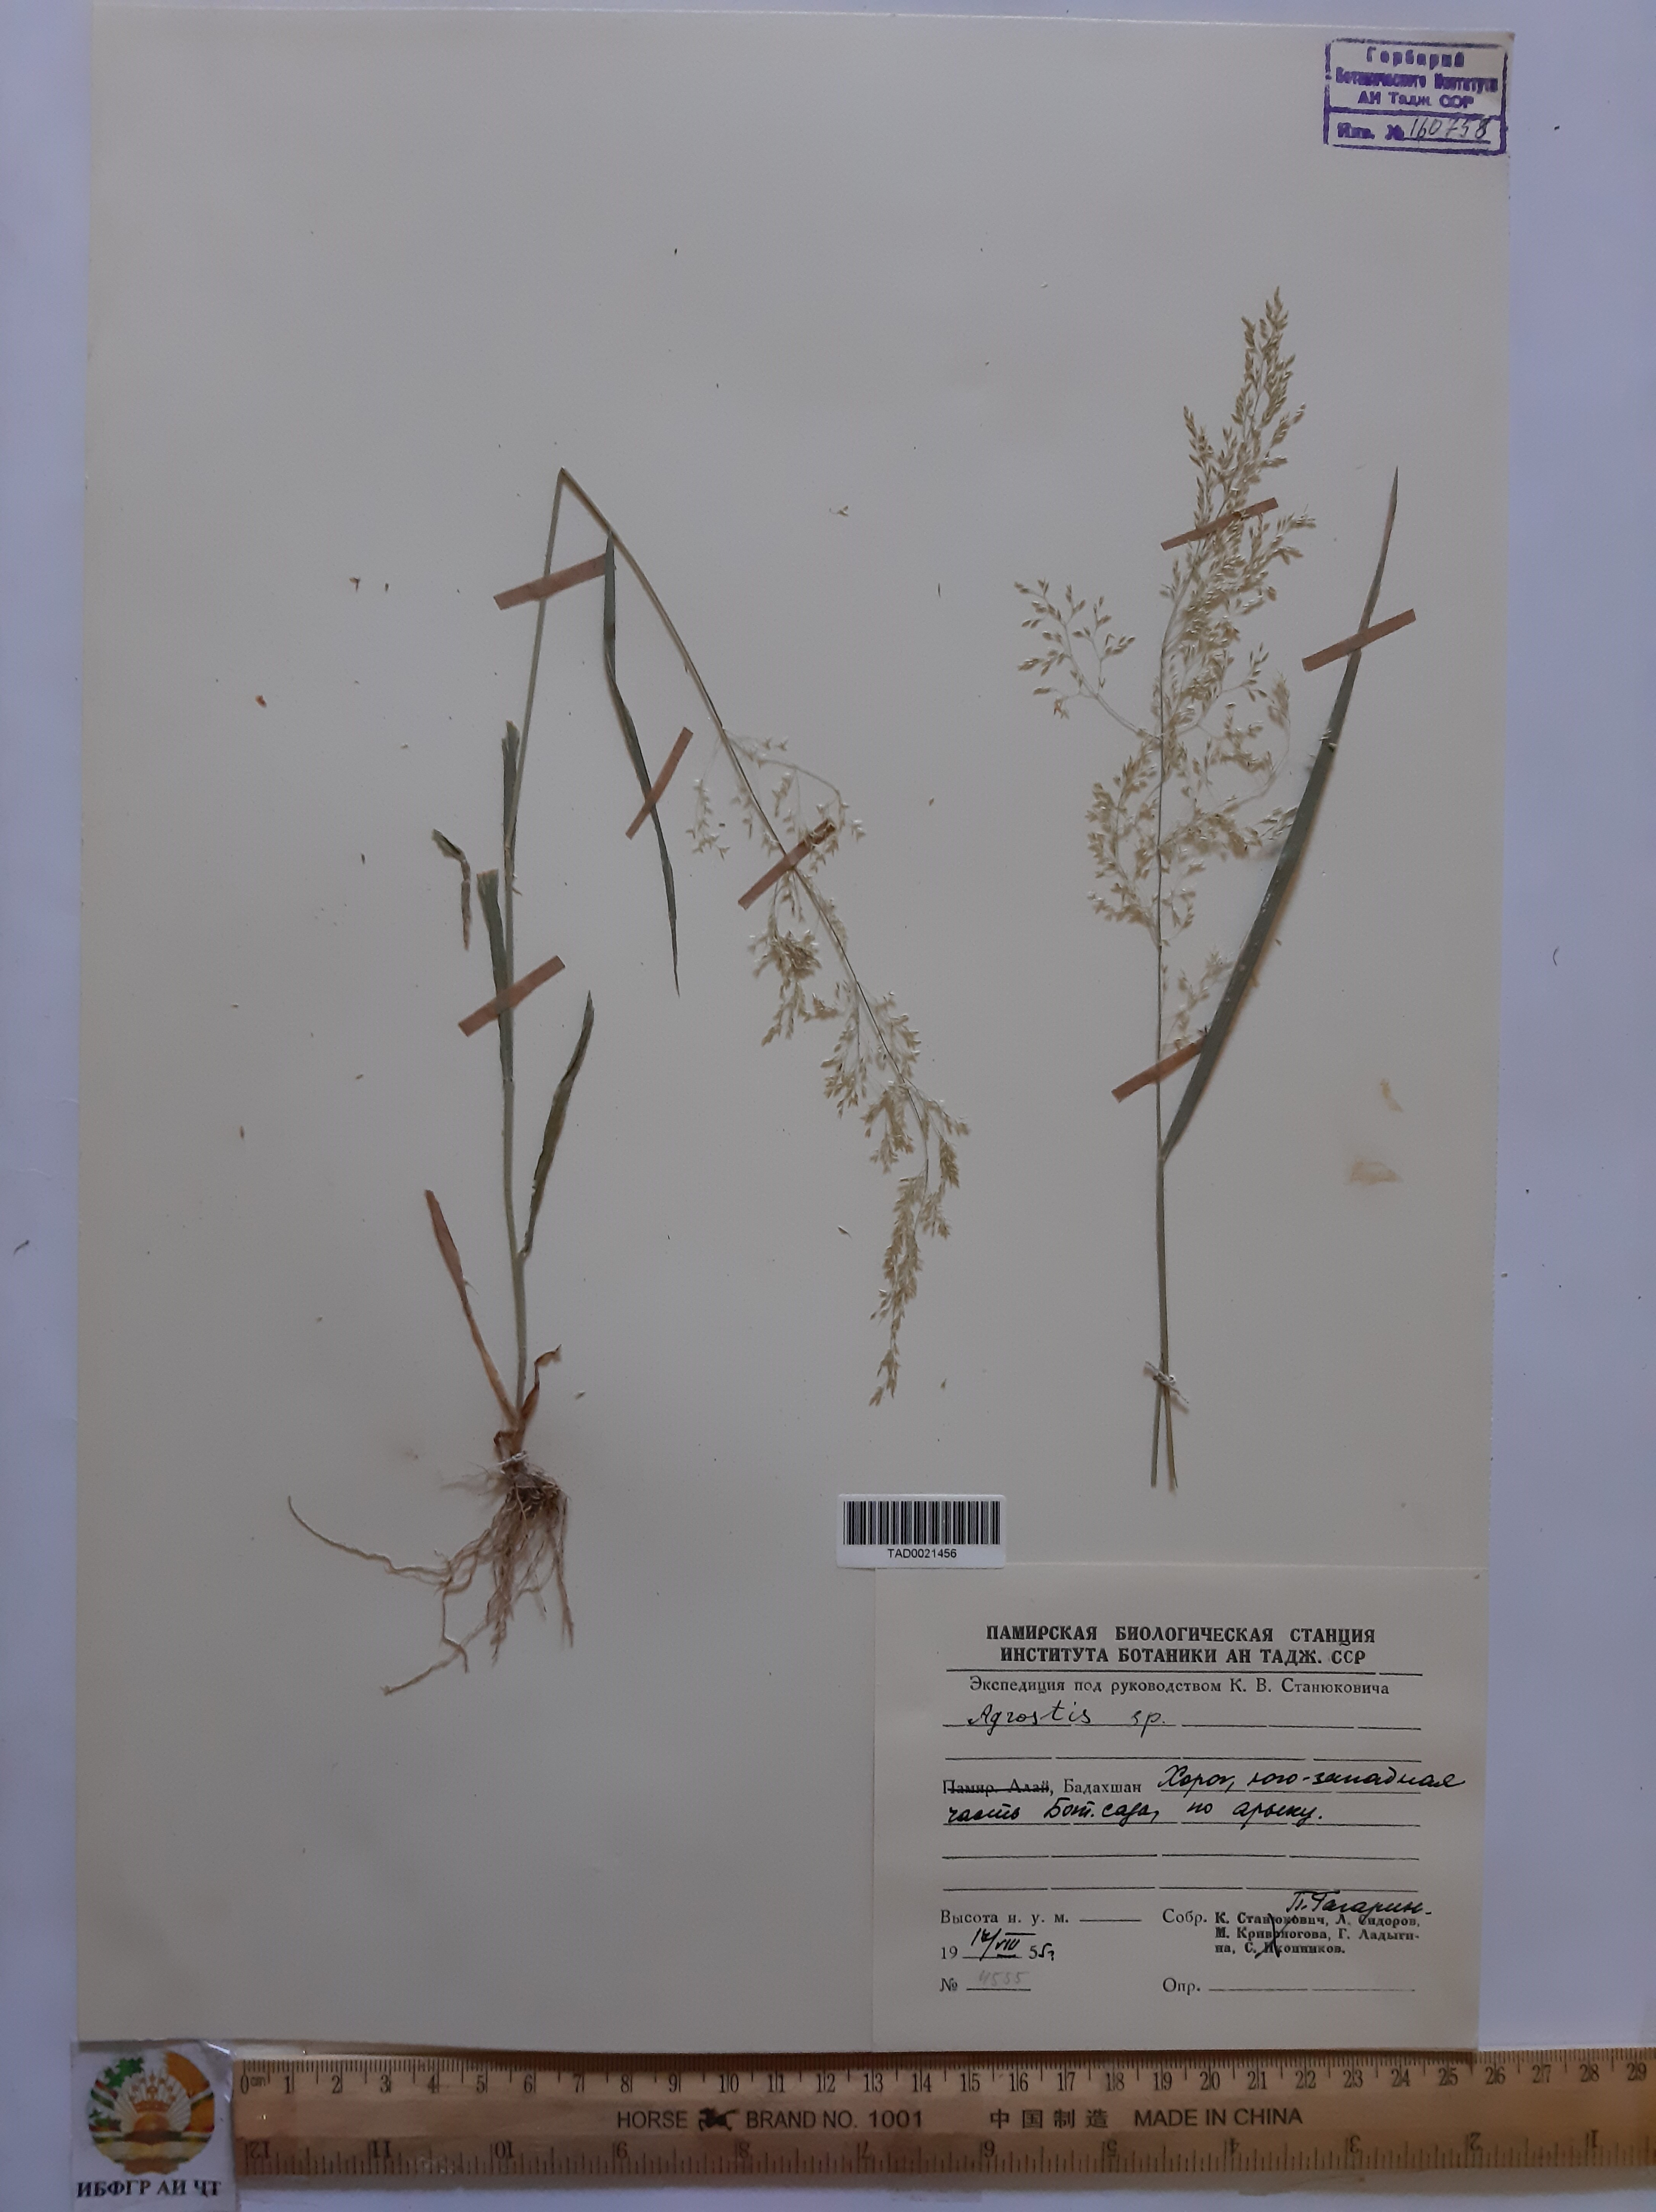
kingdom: Plantae
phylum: Tracheophyta
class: Liliopsida
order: Poales
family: Poaceae
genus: Poa
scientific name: Poa nemoralis
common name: Wood bluegrass
